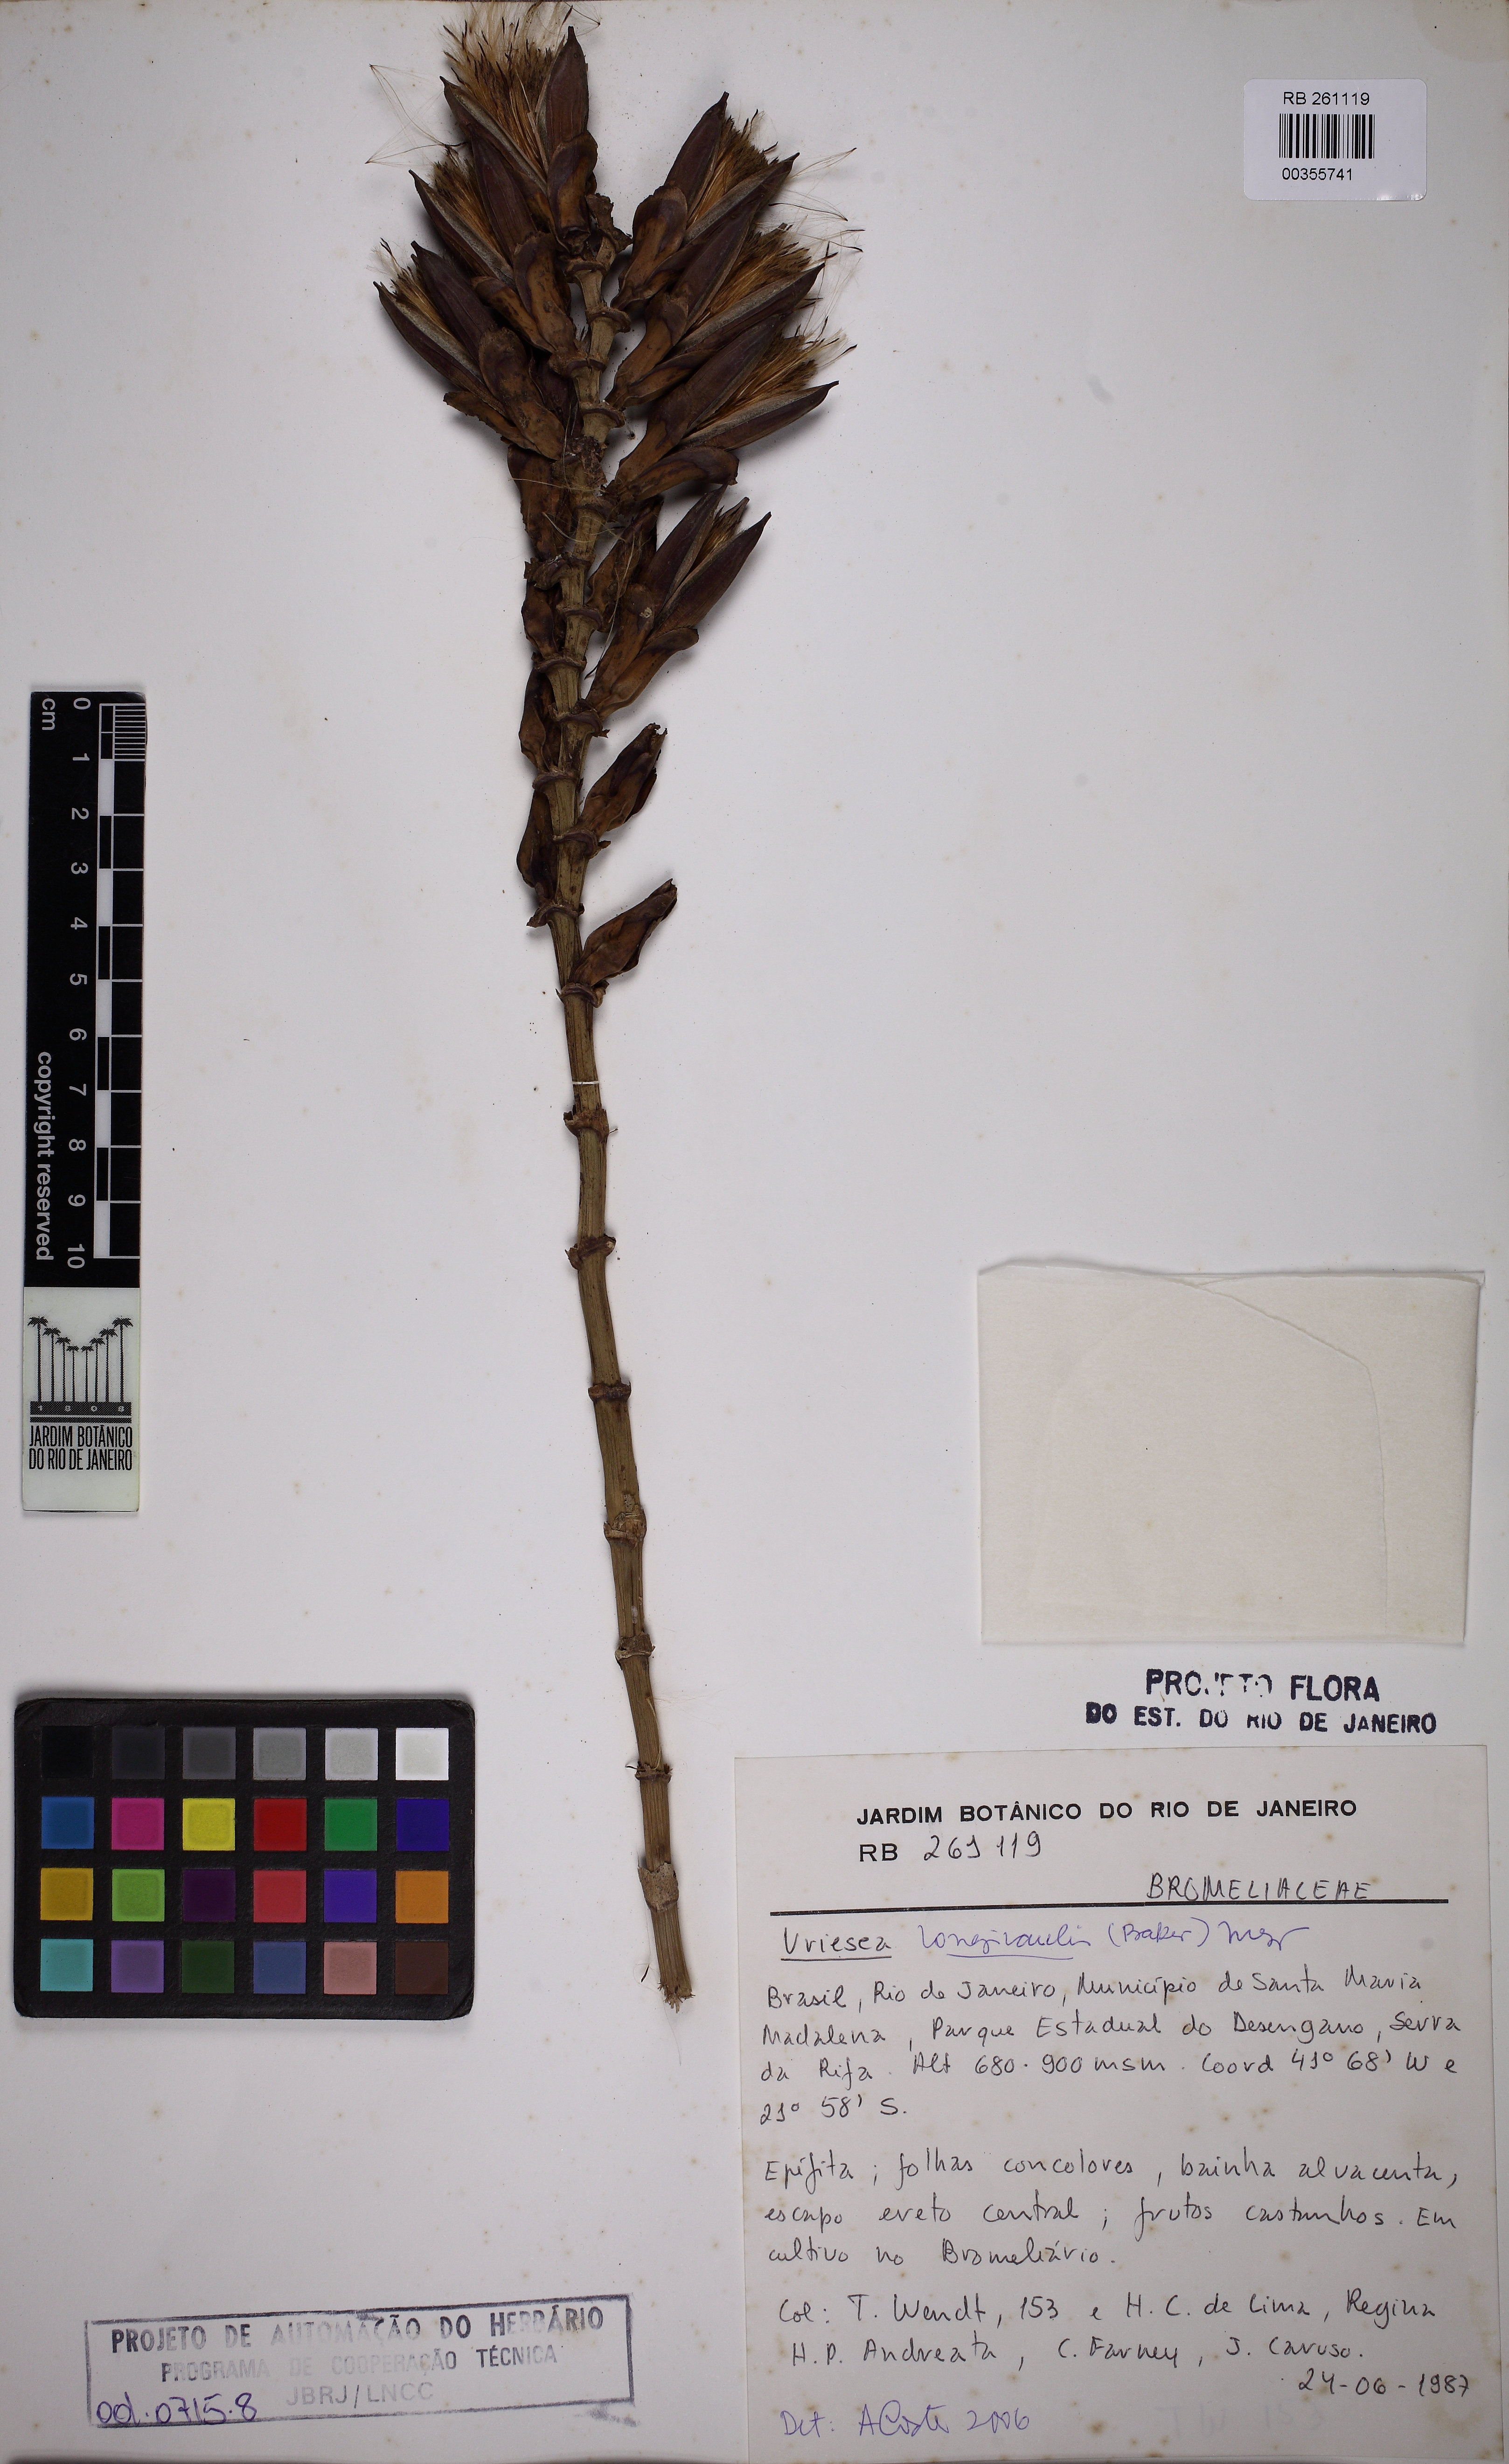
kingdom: Plantae
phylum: Tracheophyta
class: Liliopsida
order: Poales
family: Bromeliaceae
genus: Vriesea
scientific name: Vriesea longicaulis
